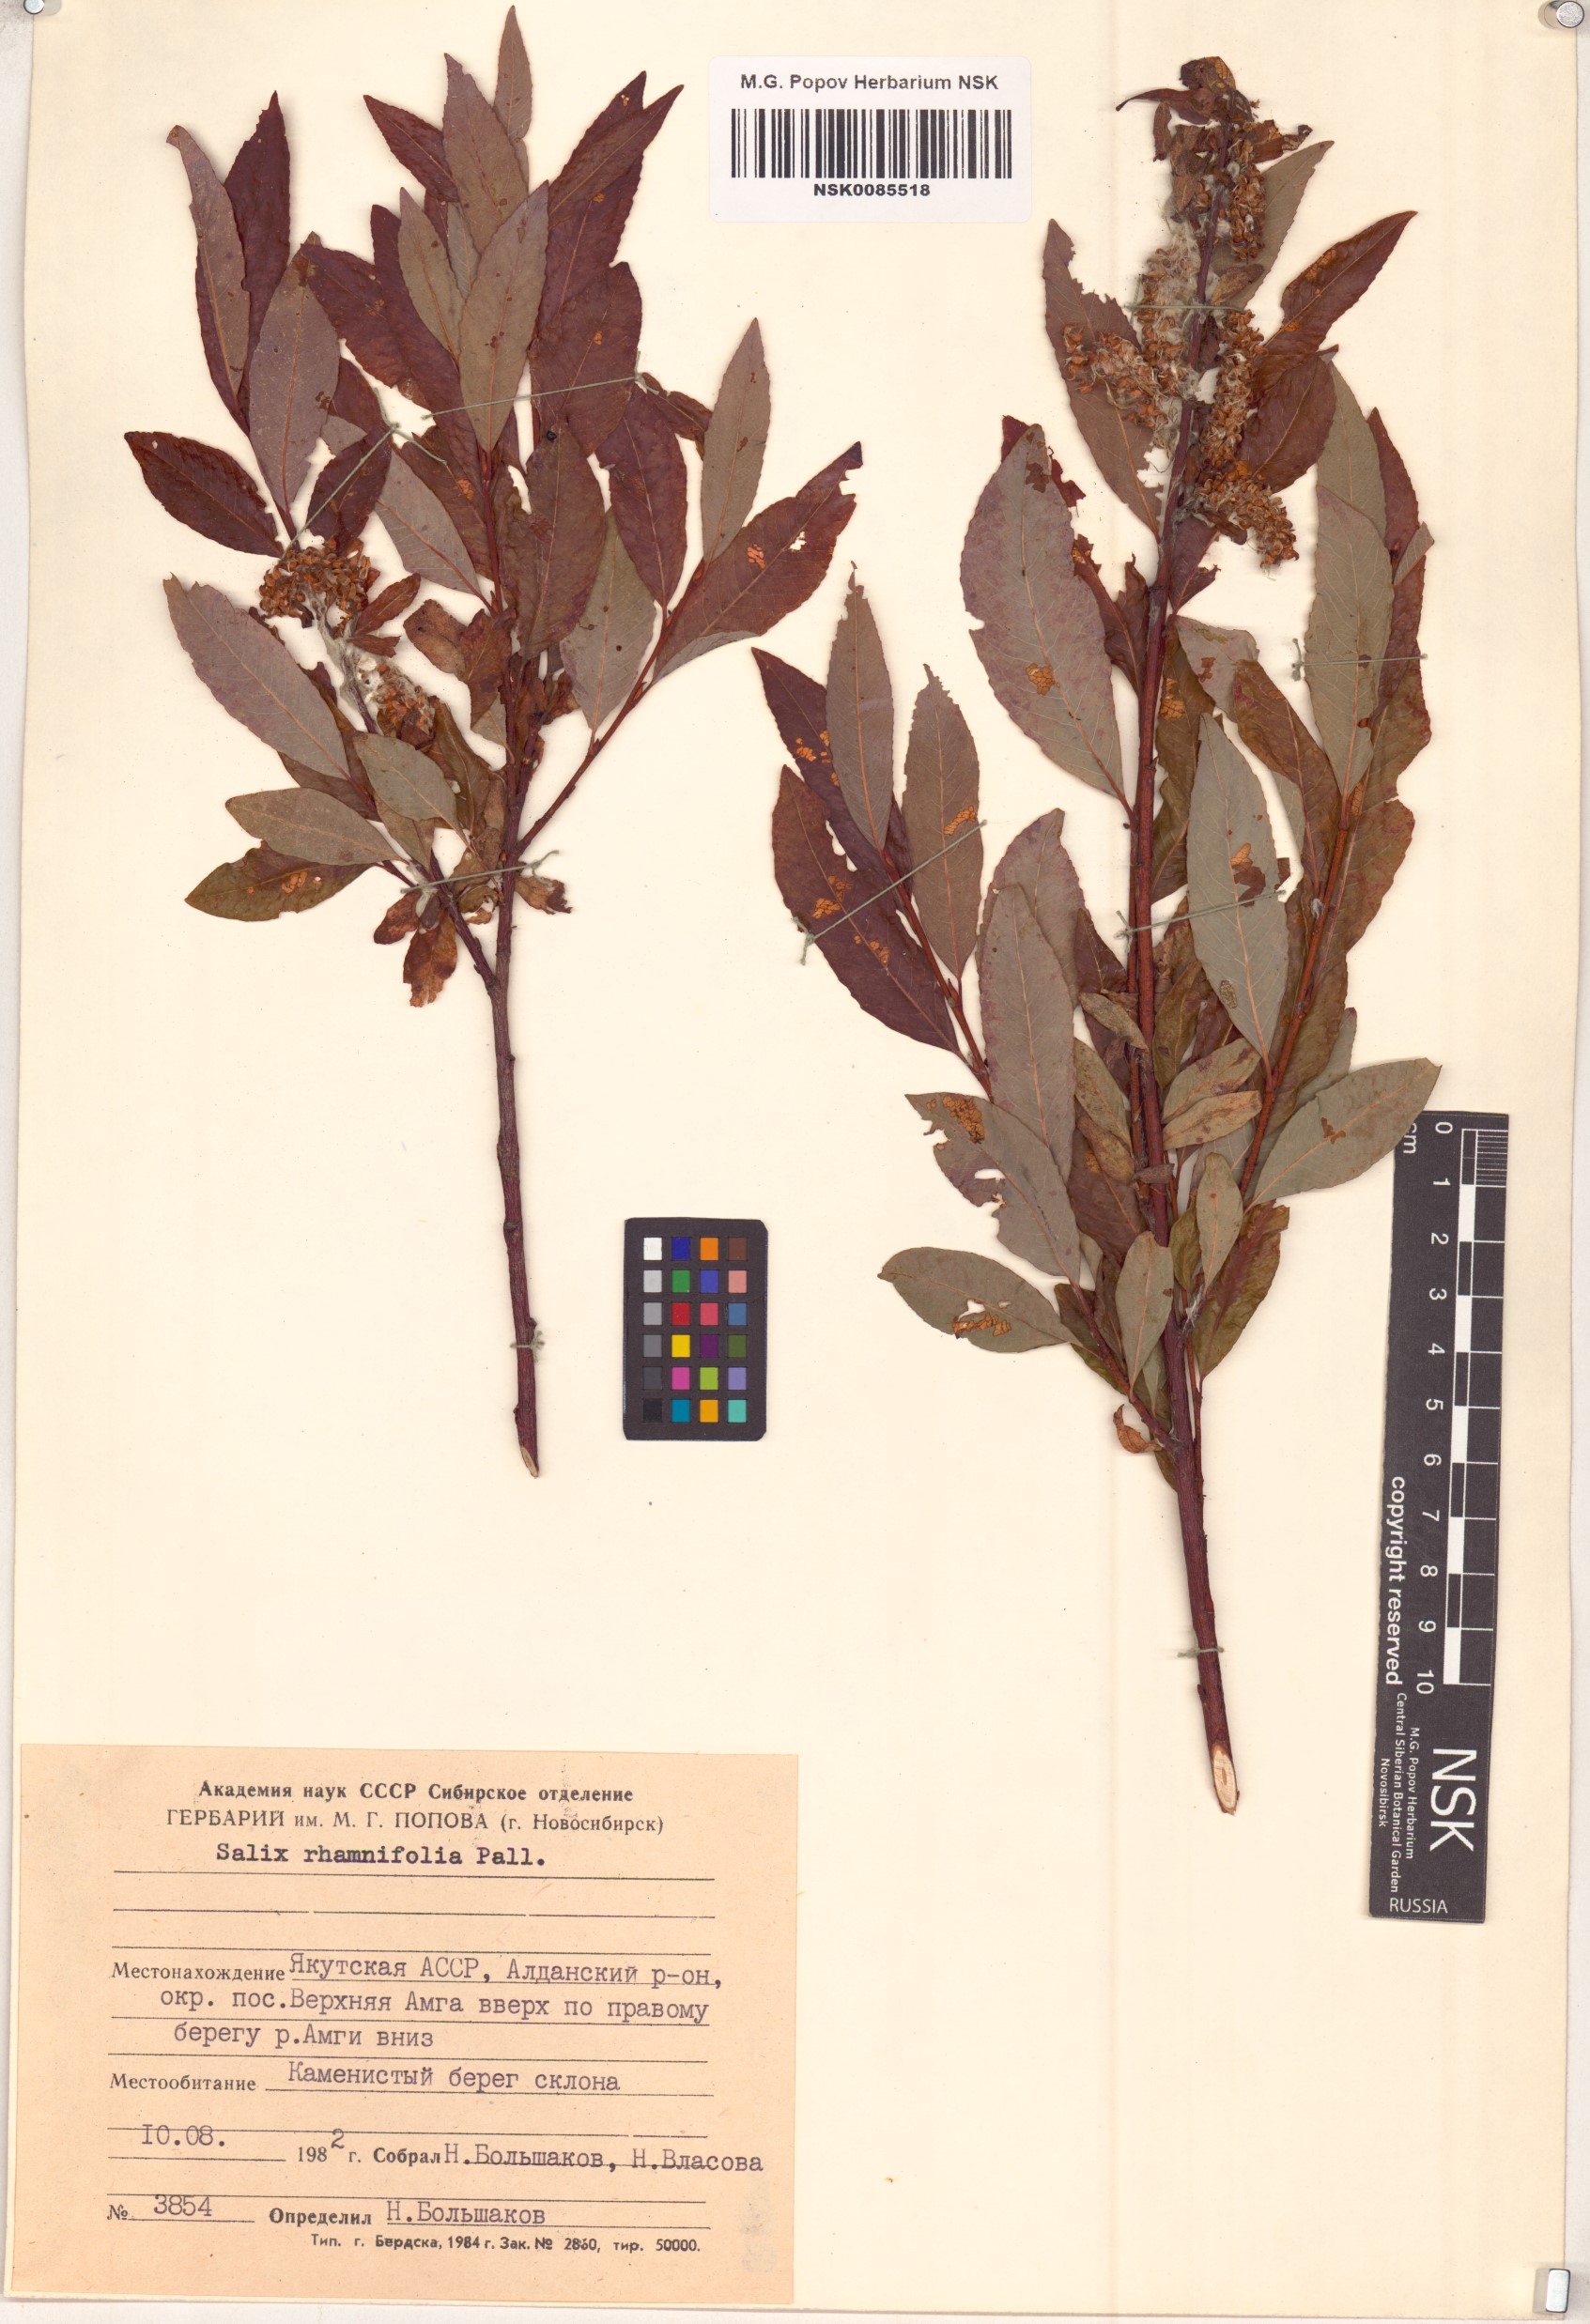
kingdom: Plantae
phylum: Tracheophyta
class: Magnoliopsida
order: Malpighiales
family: Salicaceae
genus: Salix
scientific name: Salix rhamnifolia
